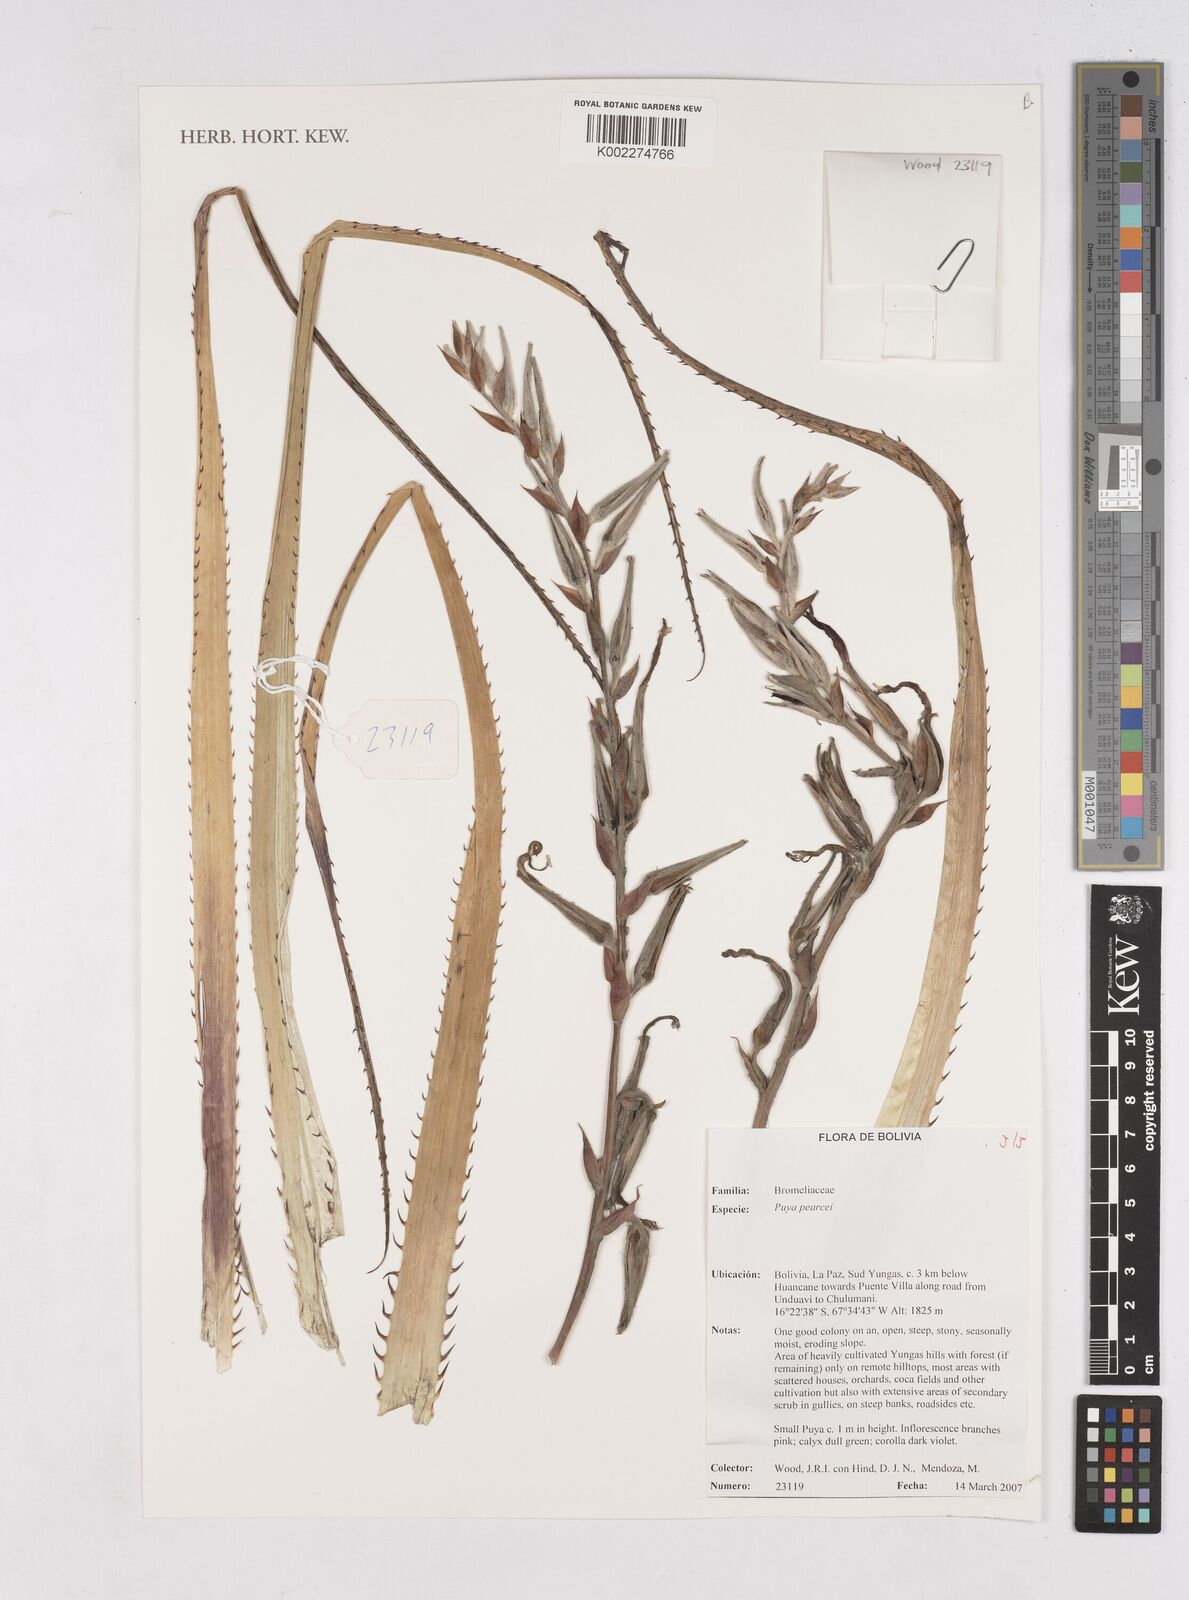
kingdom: Plantae
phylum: Tracheophyta
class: Liliopsida
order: Poales
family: Bromeliaceae
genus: Puya
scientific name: Puya pearcei
